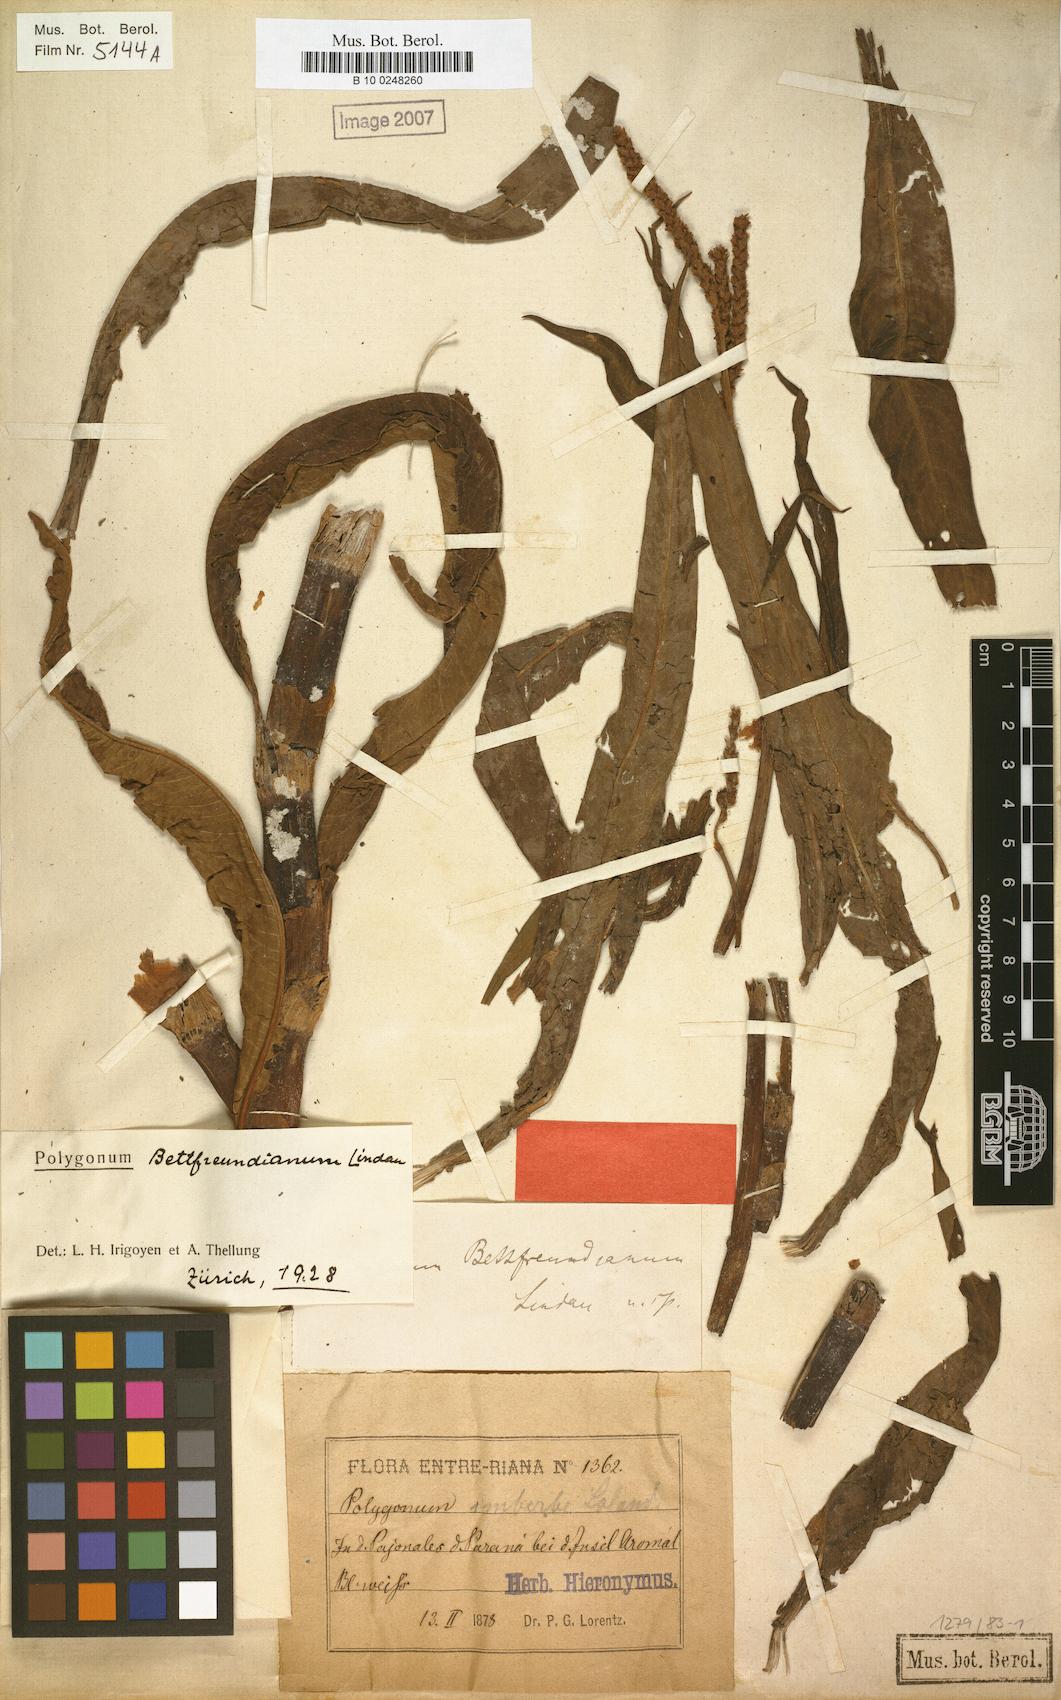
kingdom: Plantae
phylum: Tracheophyta
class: Magnoliopsida
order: Caryophyllales
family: Polygonaceae
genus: Persicaria
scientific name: Persicaria acuminata
